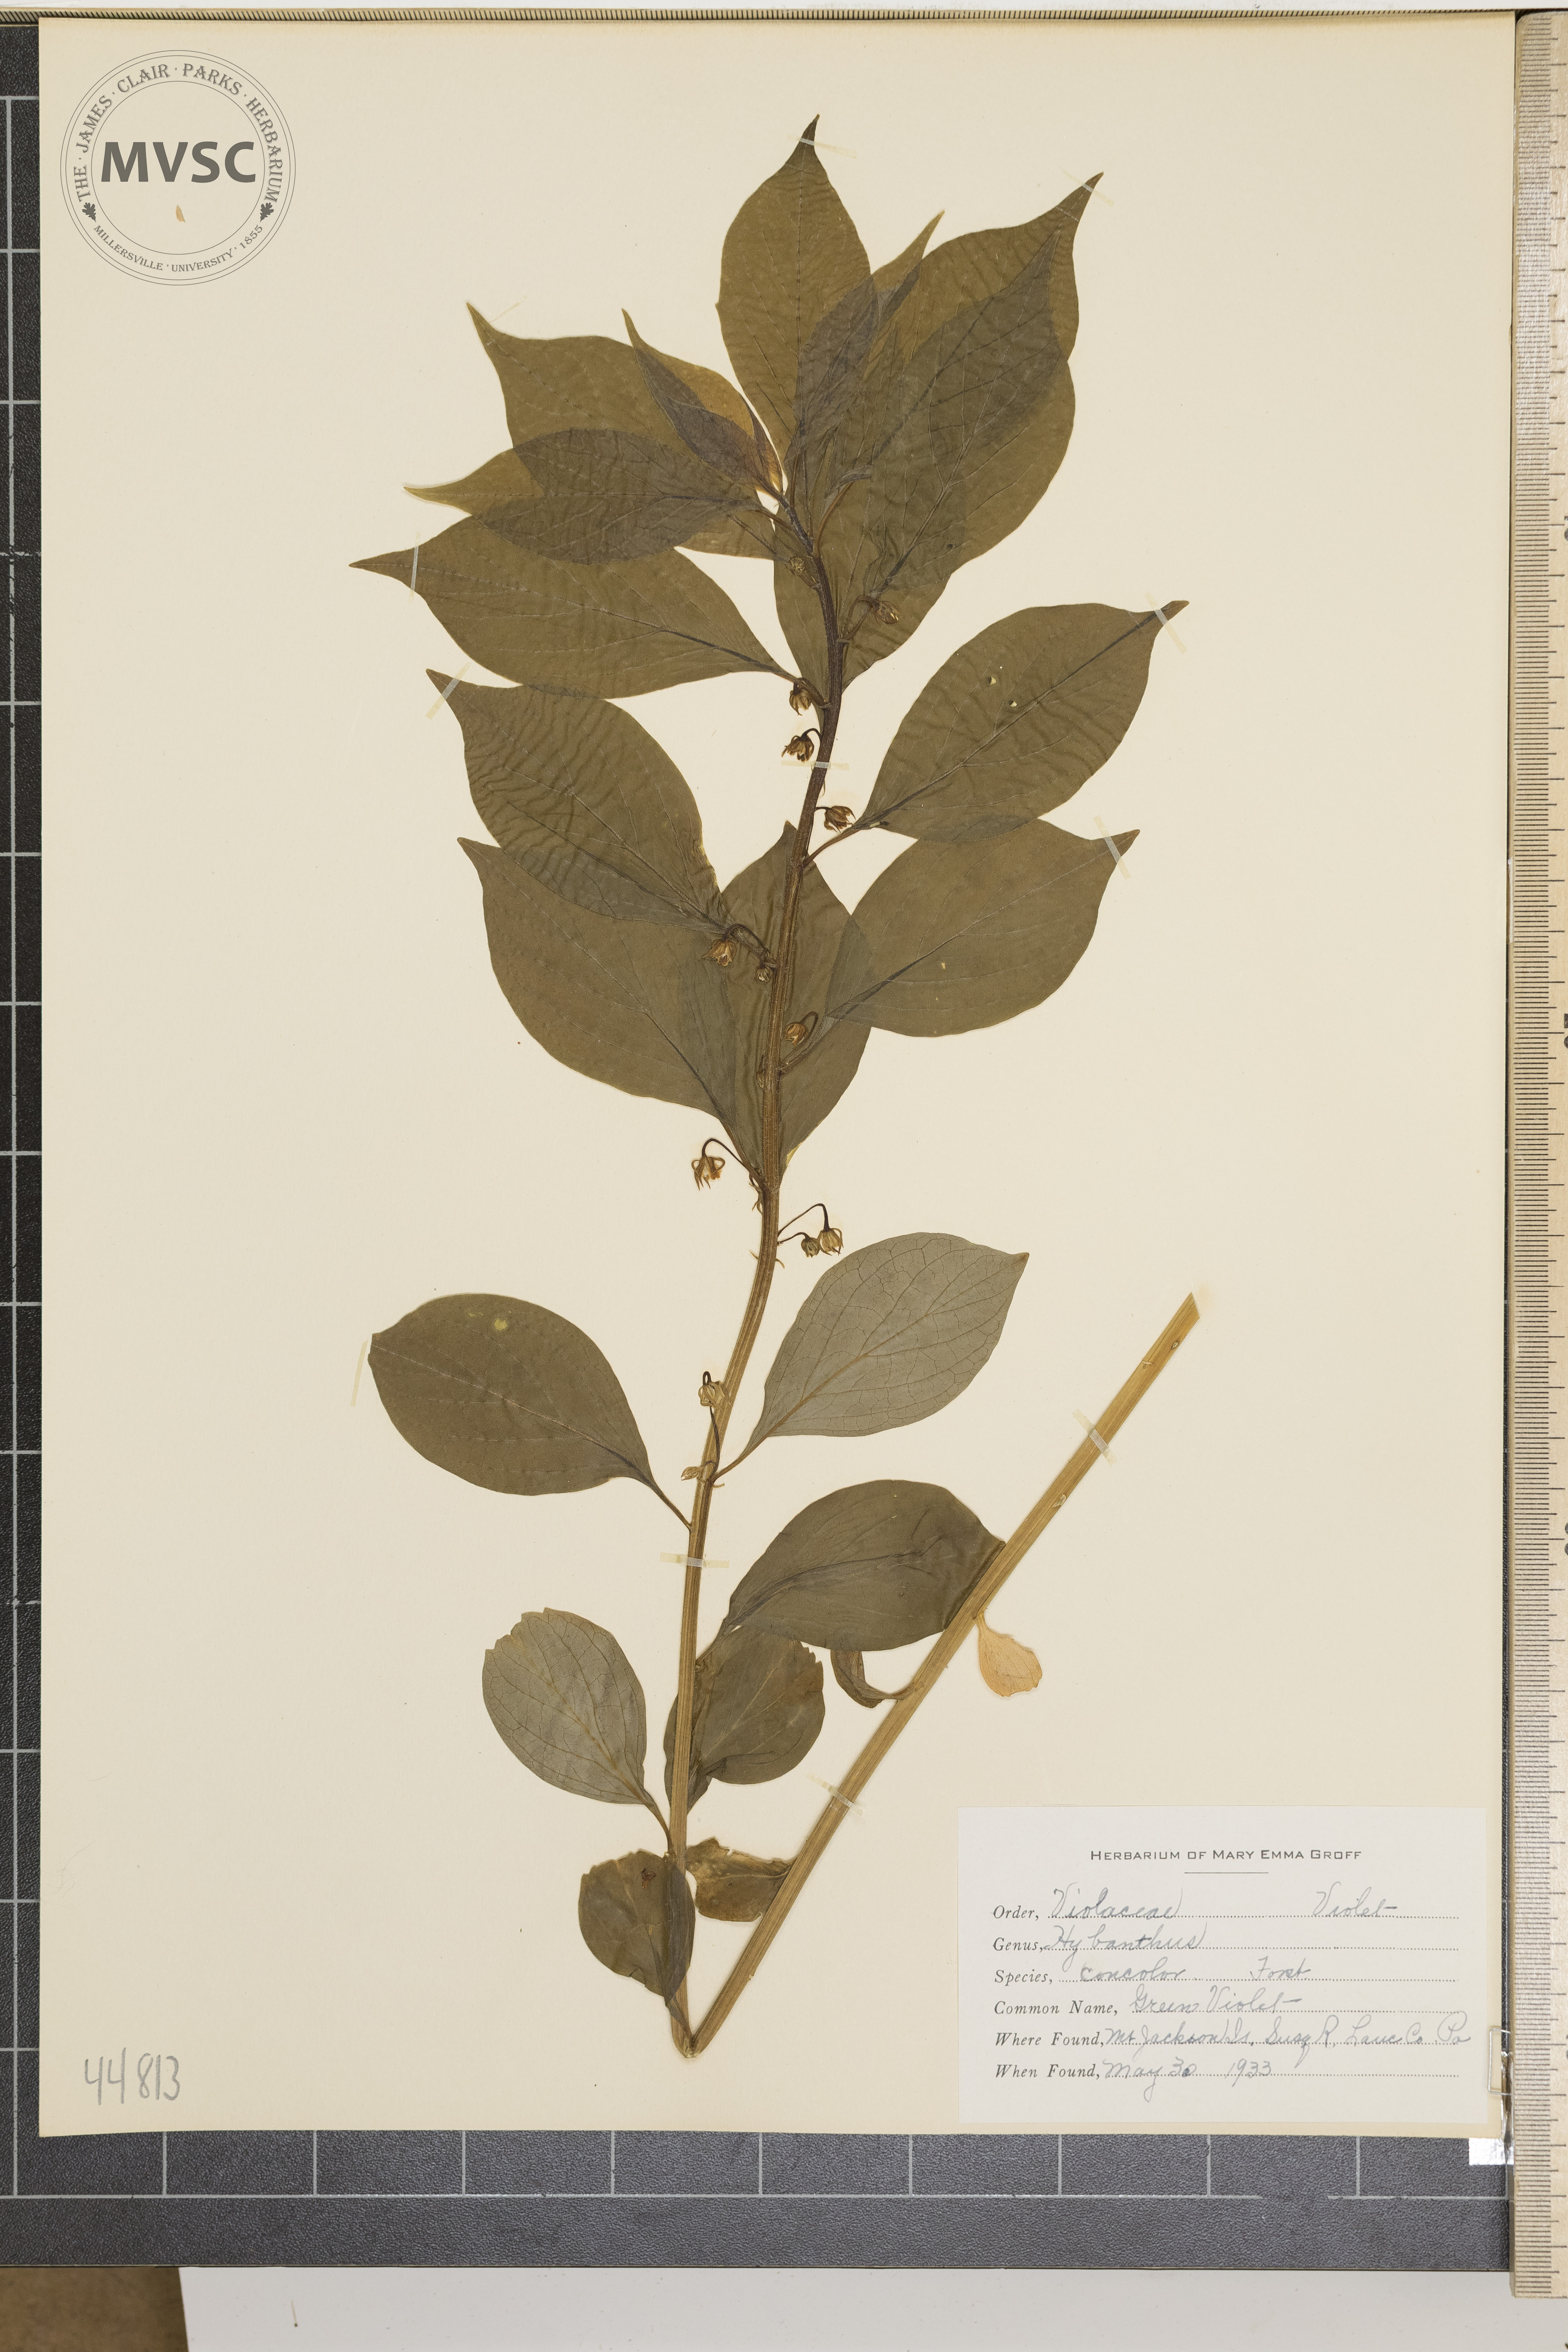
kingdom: Plantae
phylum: Tracheophyta
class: Magnoliopsida
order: Malpighiales
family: Violaceae
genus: Cubelium
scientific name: Cubelium concolor
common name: Green violet
